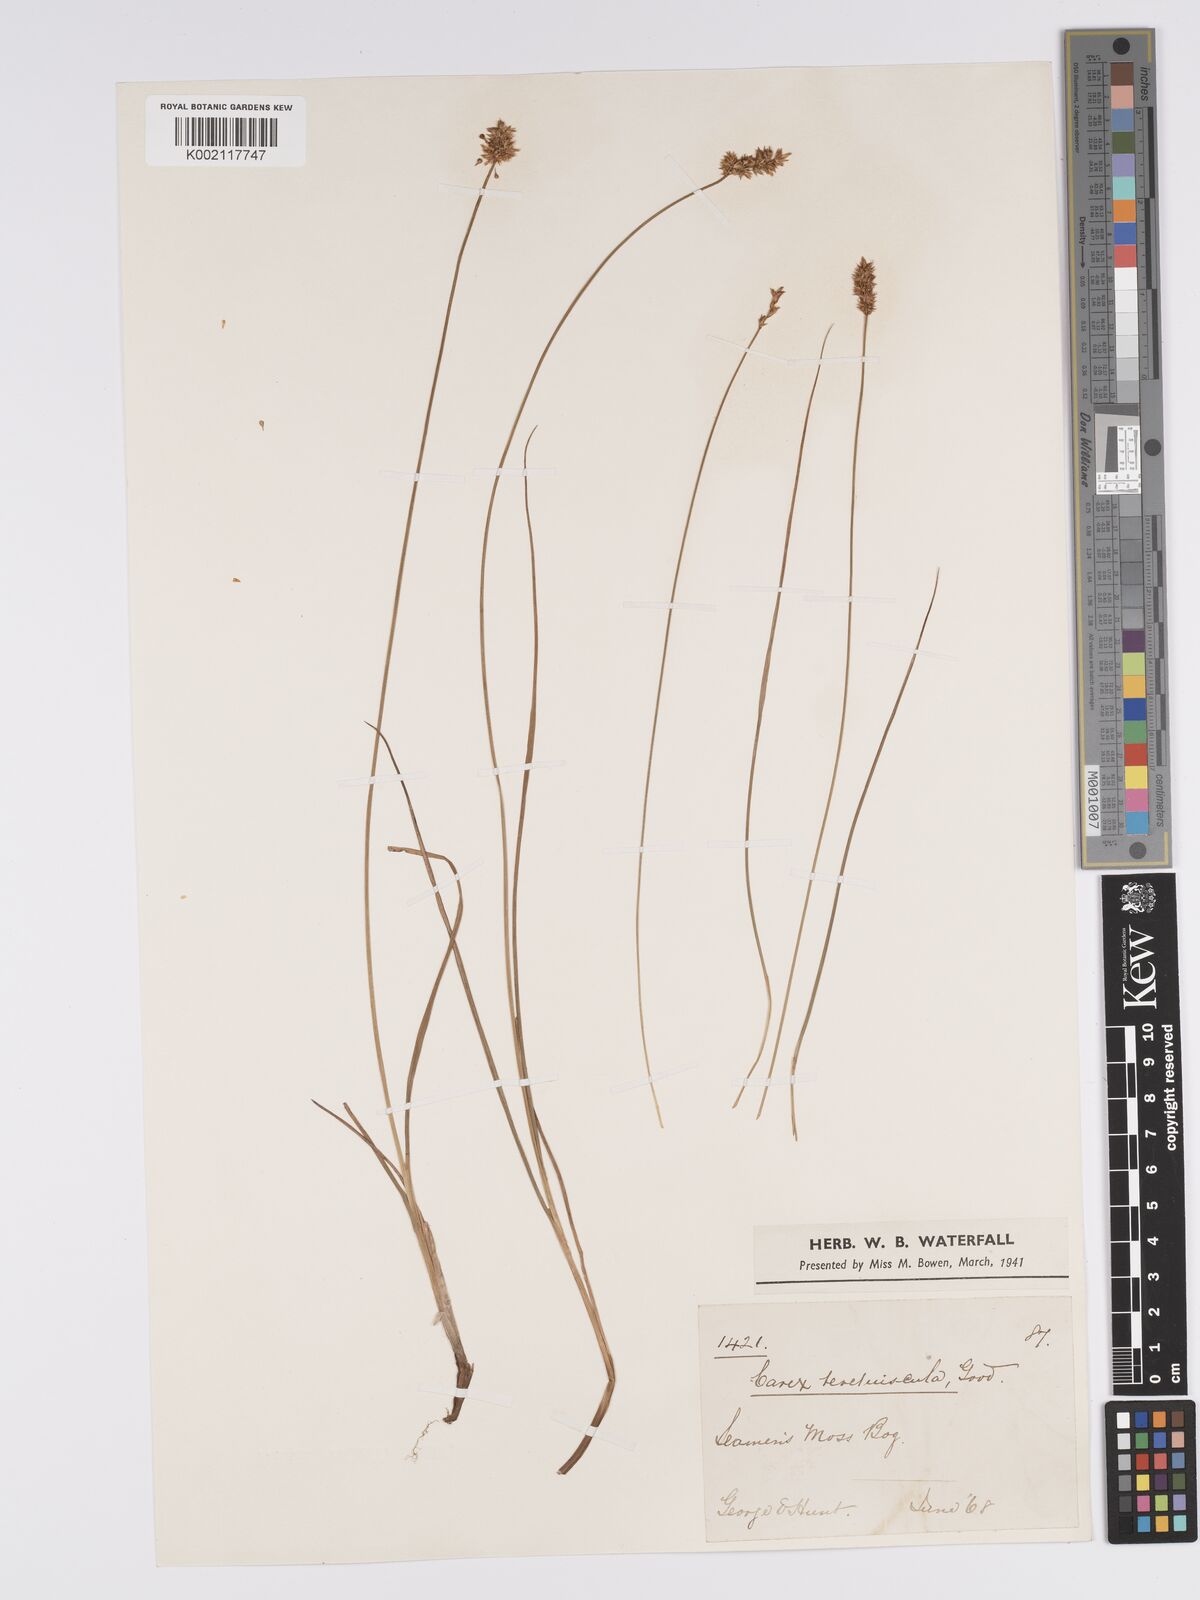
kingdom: Plantae
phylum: Tracheophyta
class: Liliopsida
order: Poales
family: Cyperaceae
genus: Carex
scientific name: Carex diandra
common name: Lesser tussock-sedge
